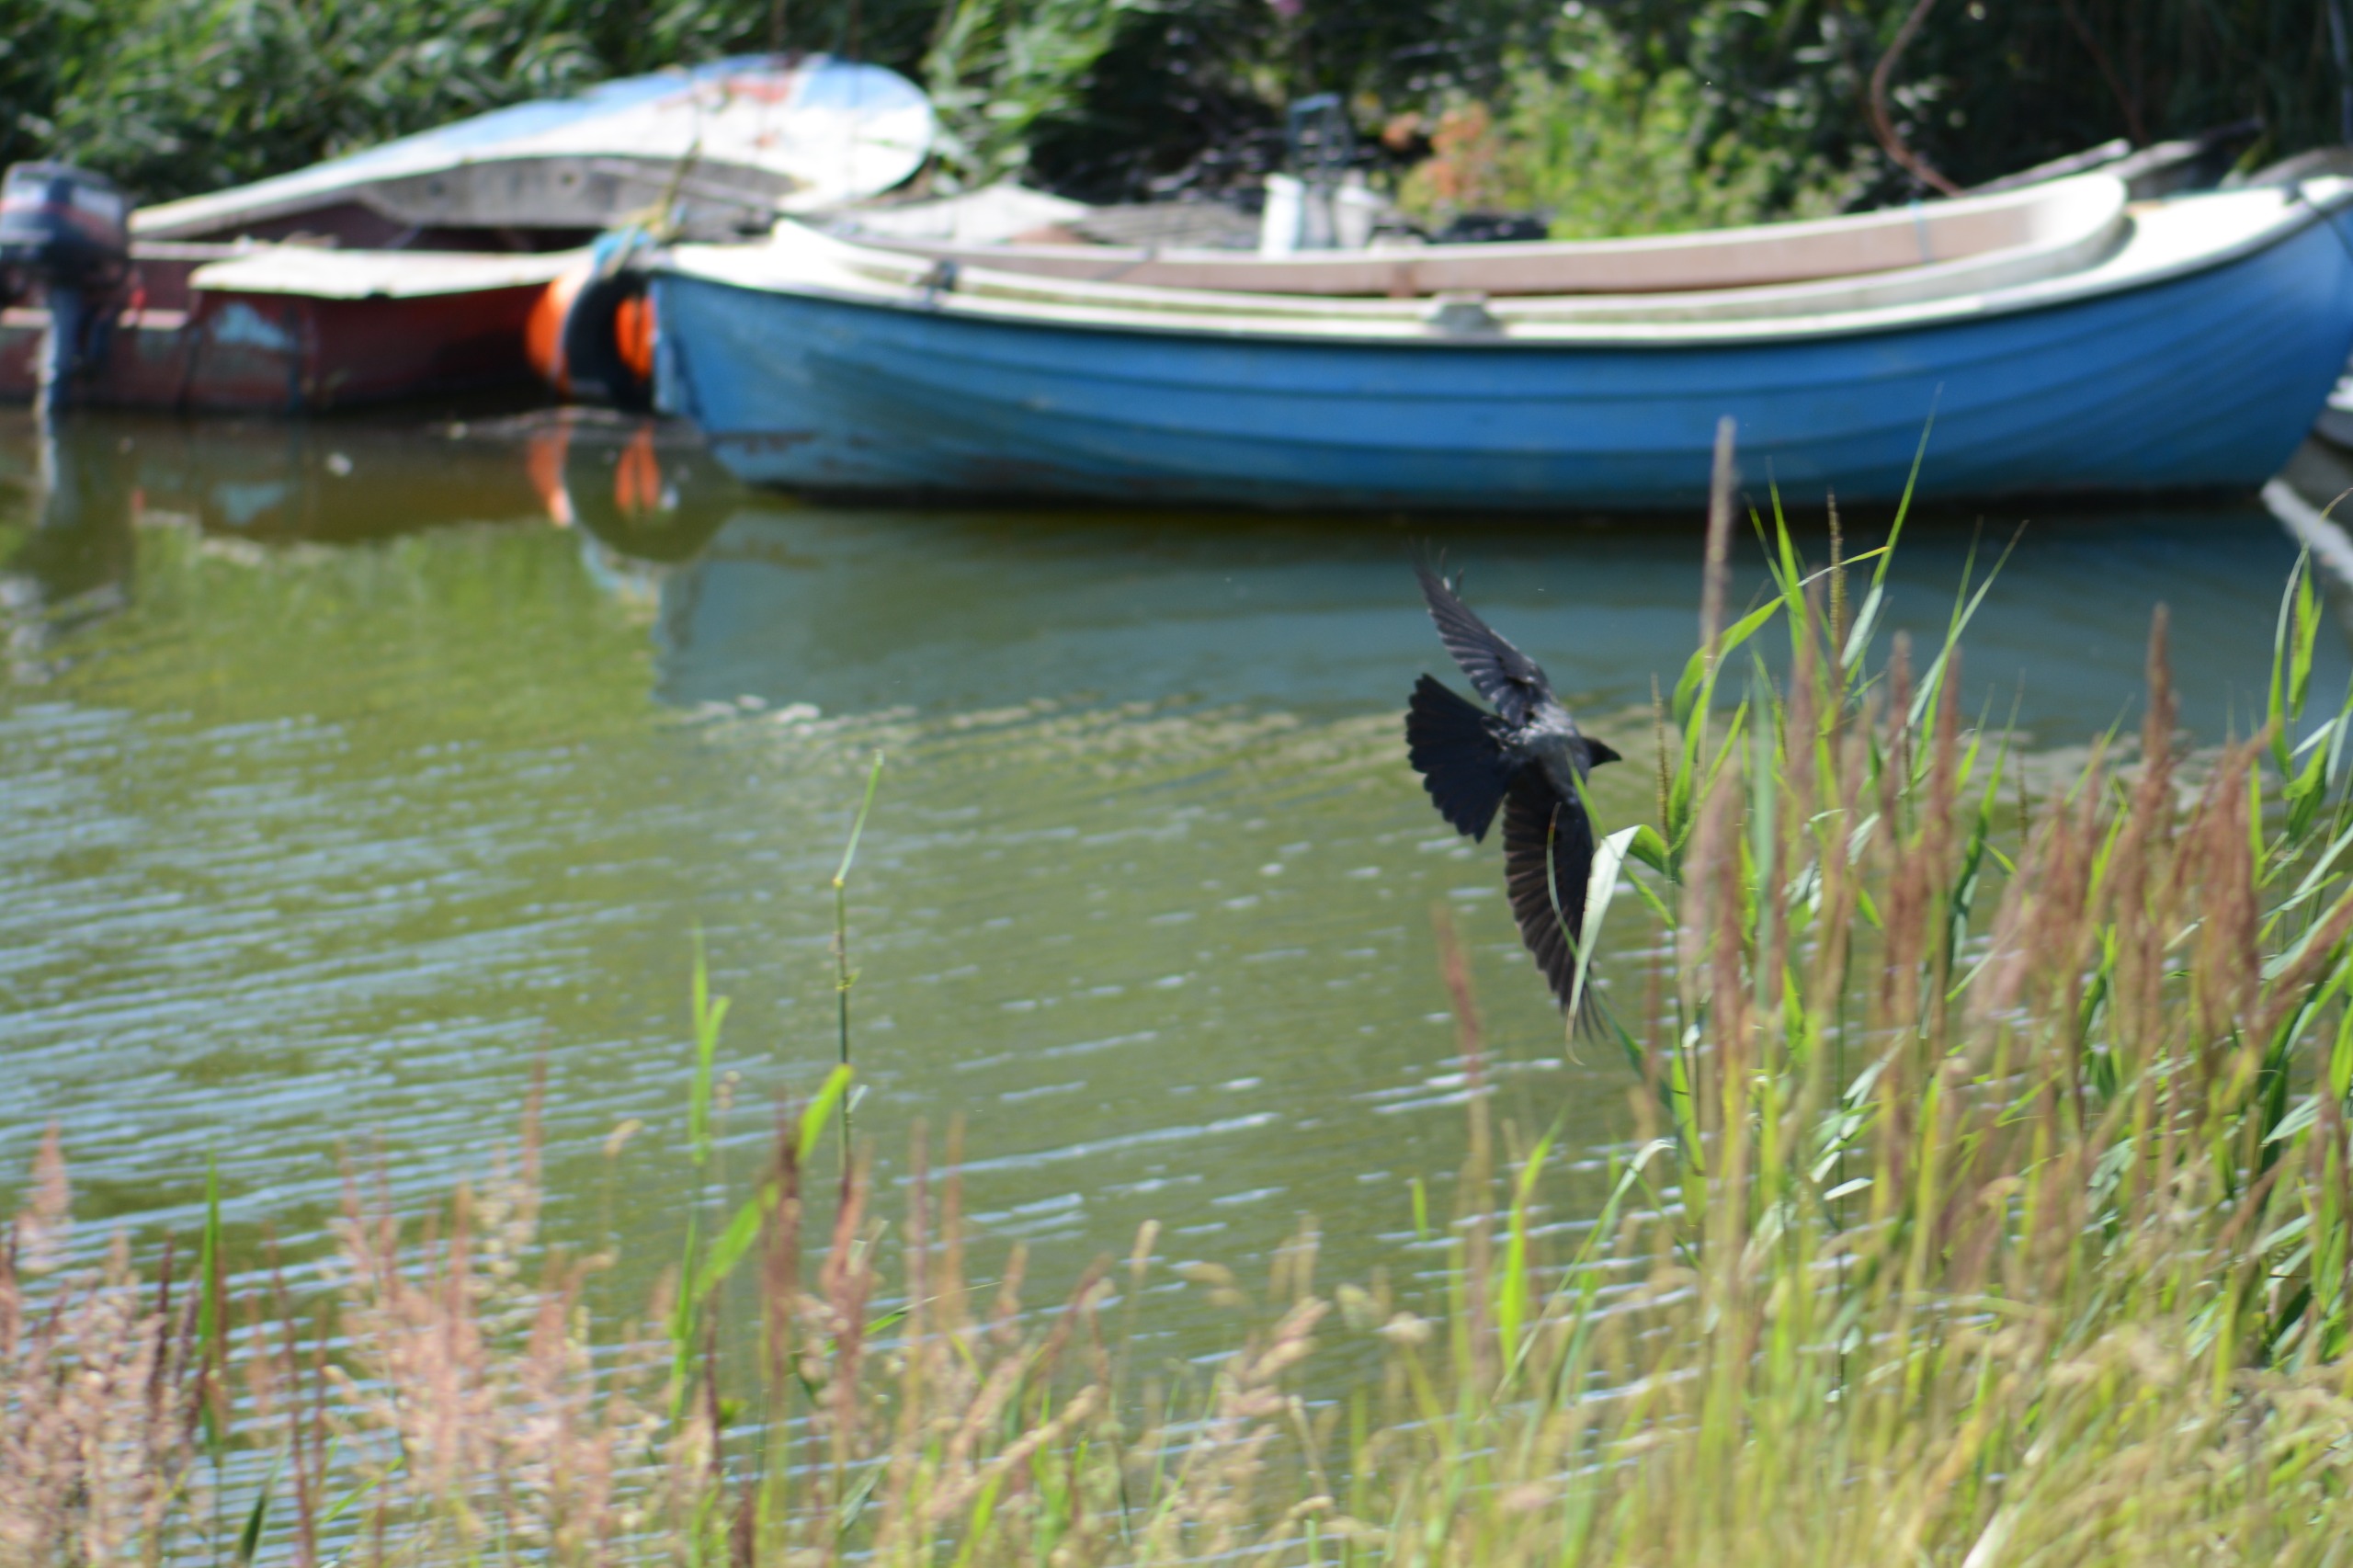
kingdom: Animalia
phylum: Chordata
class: Aves
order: Passeriformes
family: Corvidae
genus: Corvus
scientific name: Corvus cornix
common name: Gråkrage
